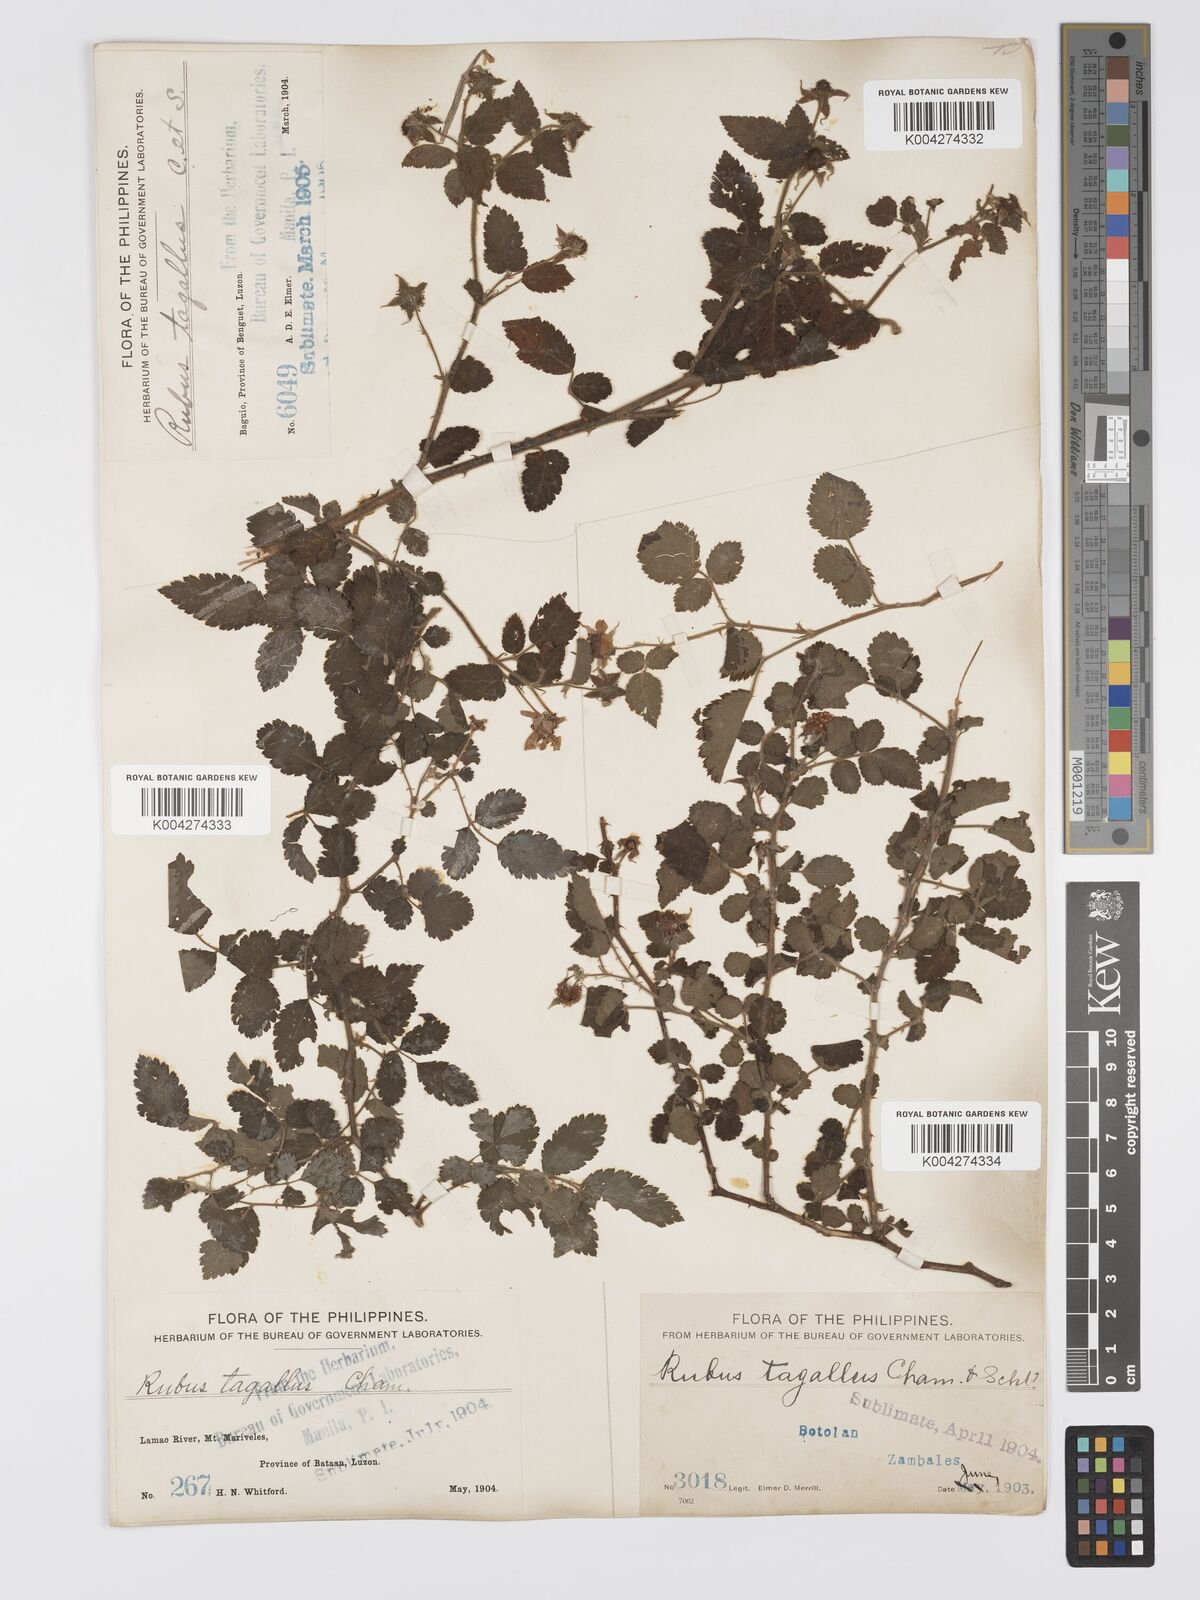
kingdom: Plantae
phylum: Tracheophyta
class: Magnoliopsida
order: Rosales
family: Rosaceae
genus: Rubus
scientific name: Rubus
